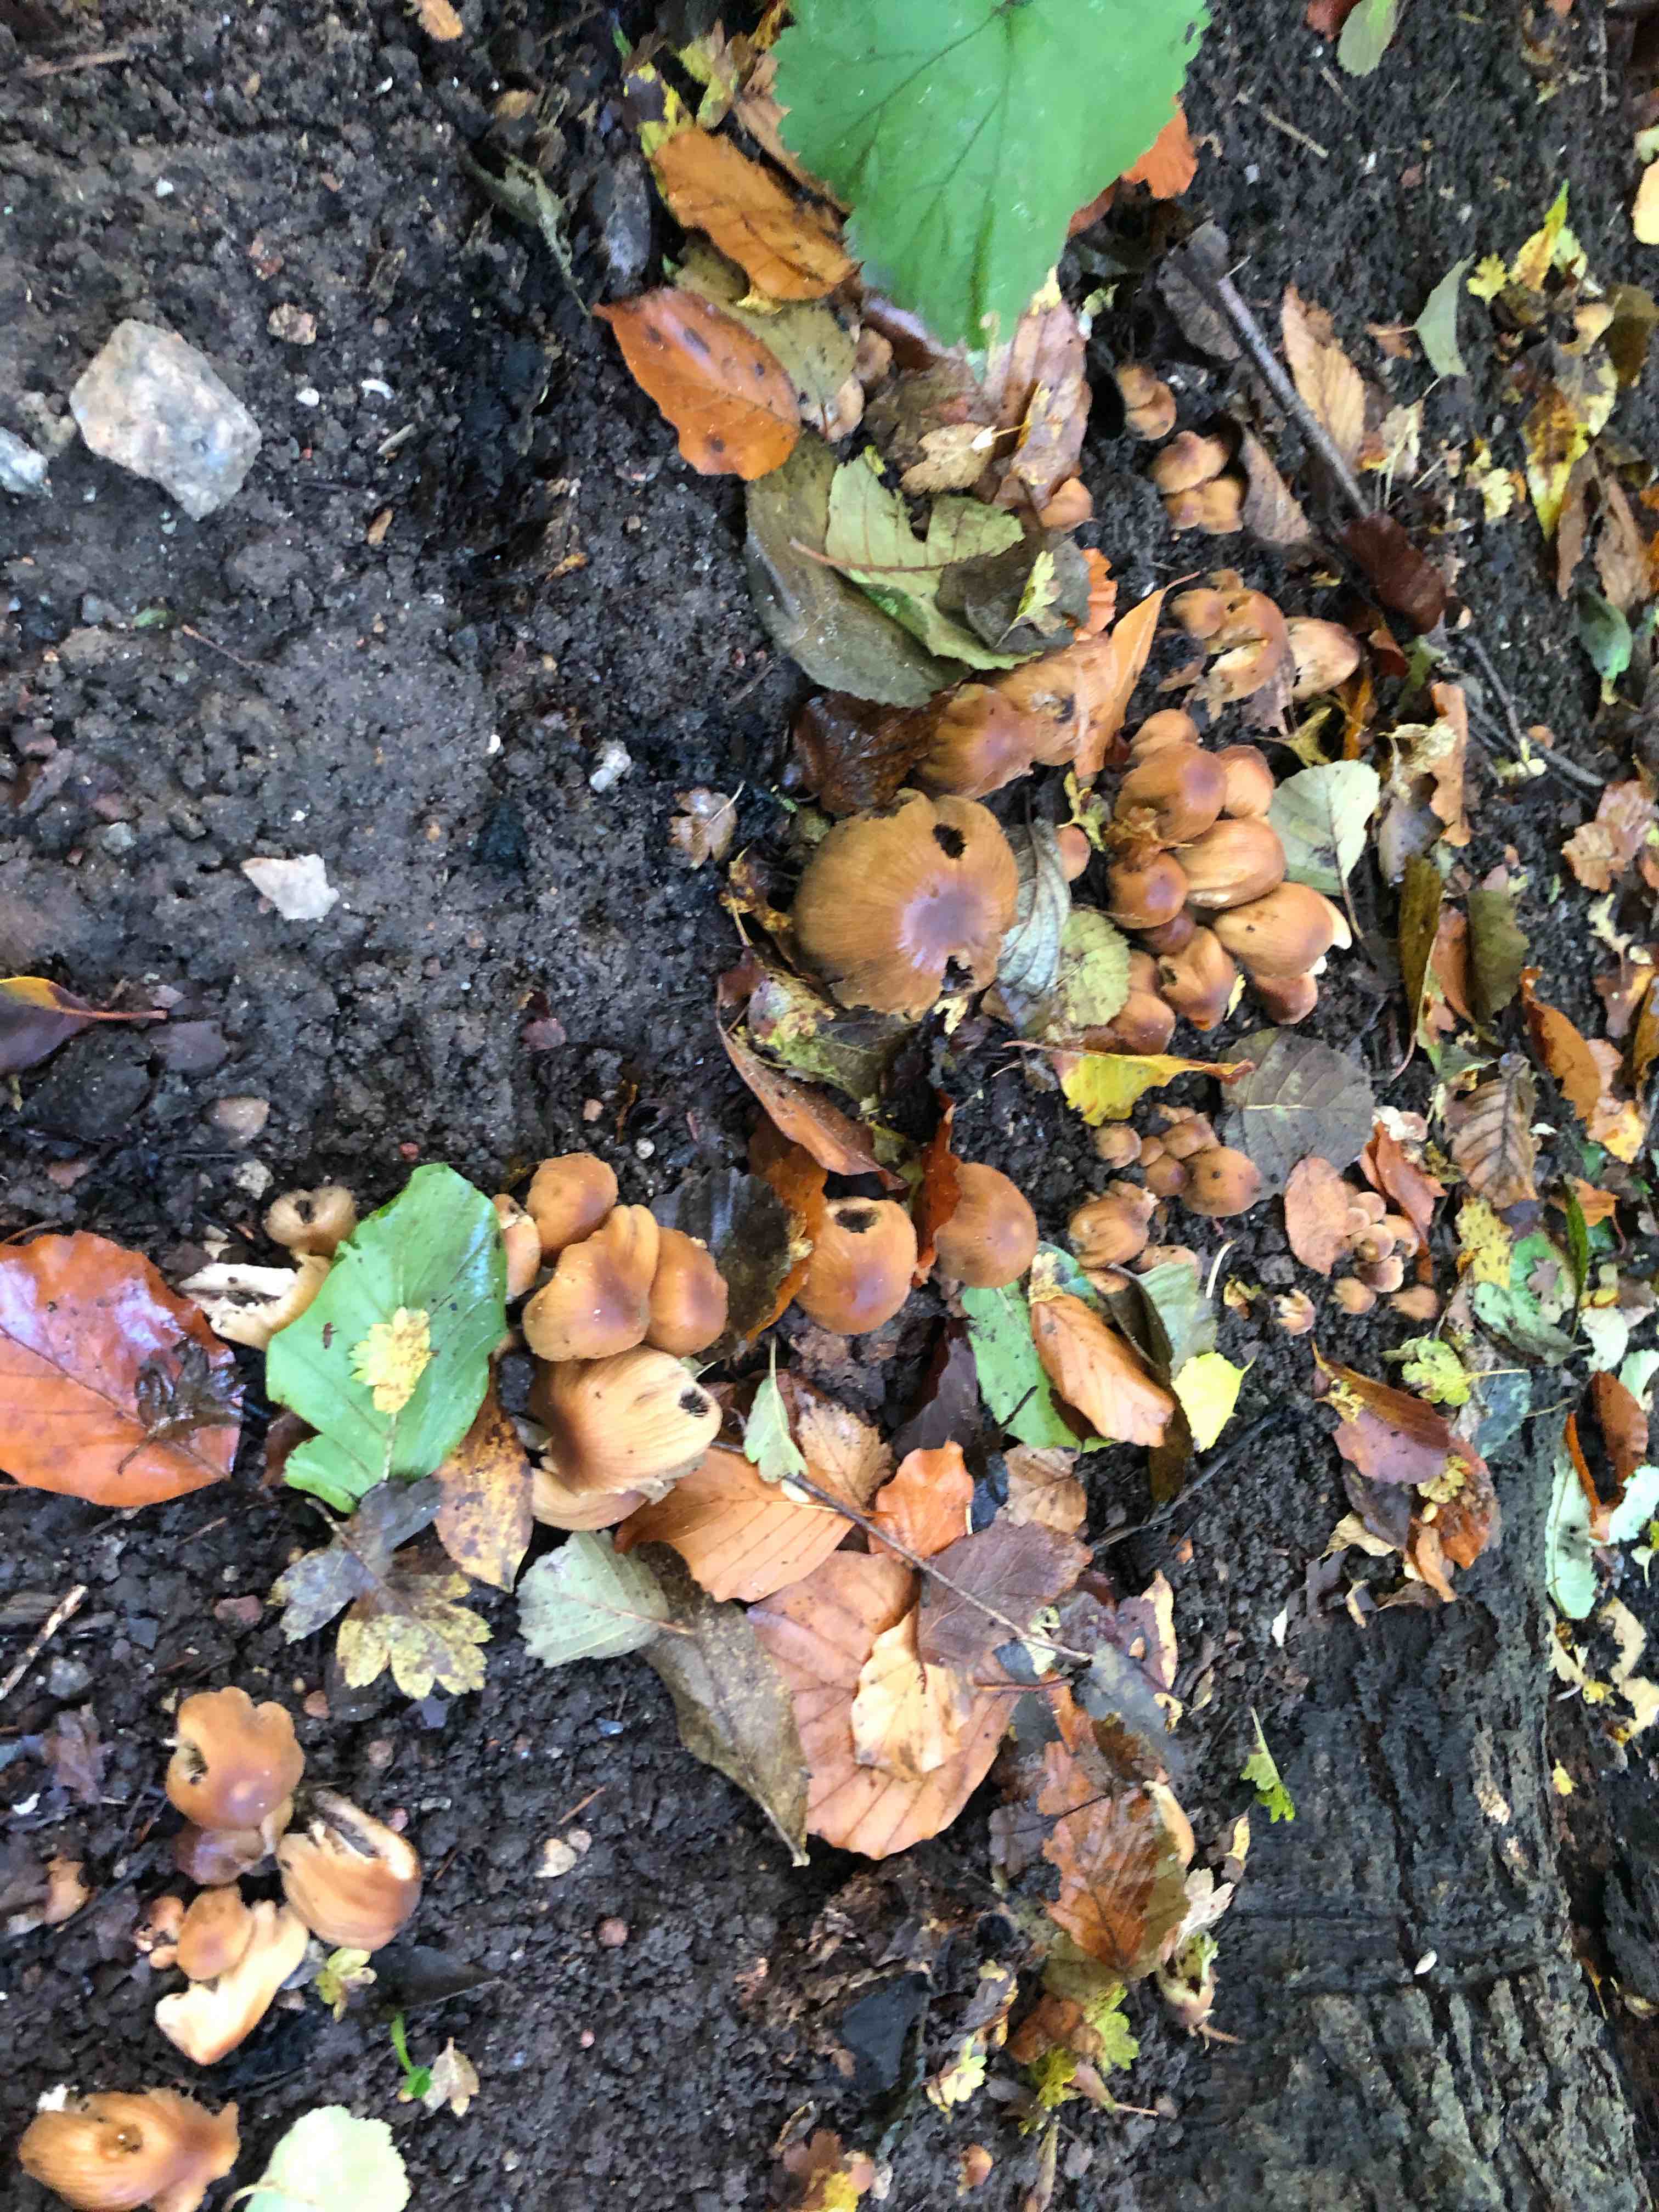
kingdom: Fungi
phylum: Basidiomycota
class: Agaricomycetes
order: Agaricales
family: Psathyrellaceae
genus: Coprinellus
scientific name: Coprinellus micaceus
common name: glimmer-blækhat
